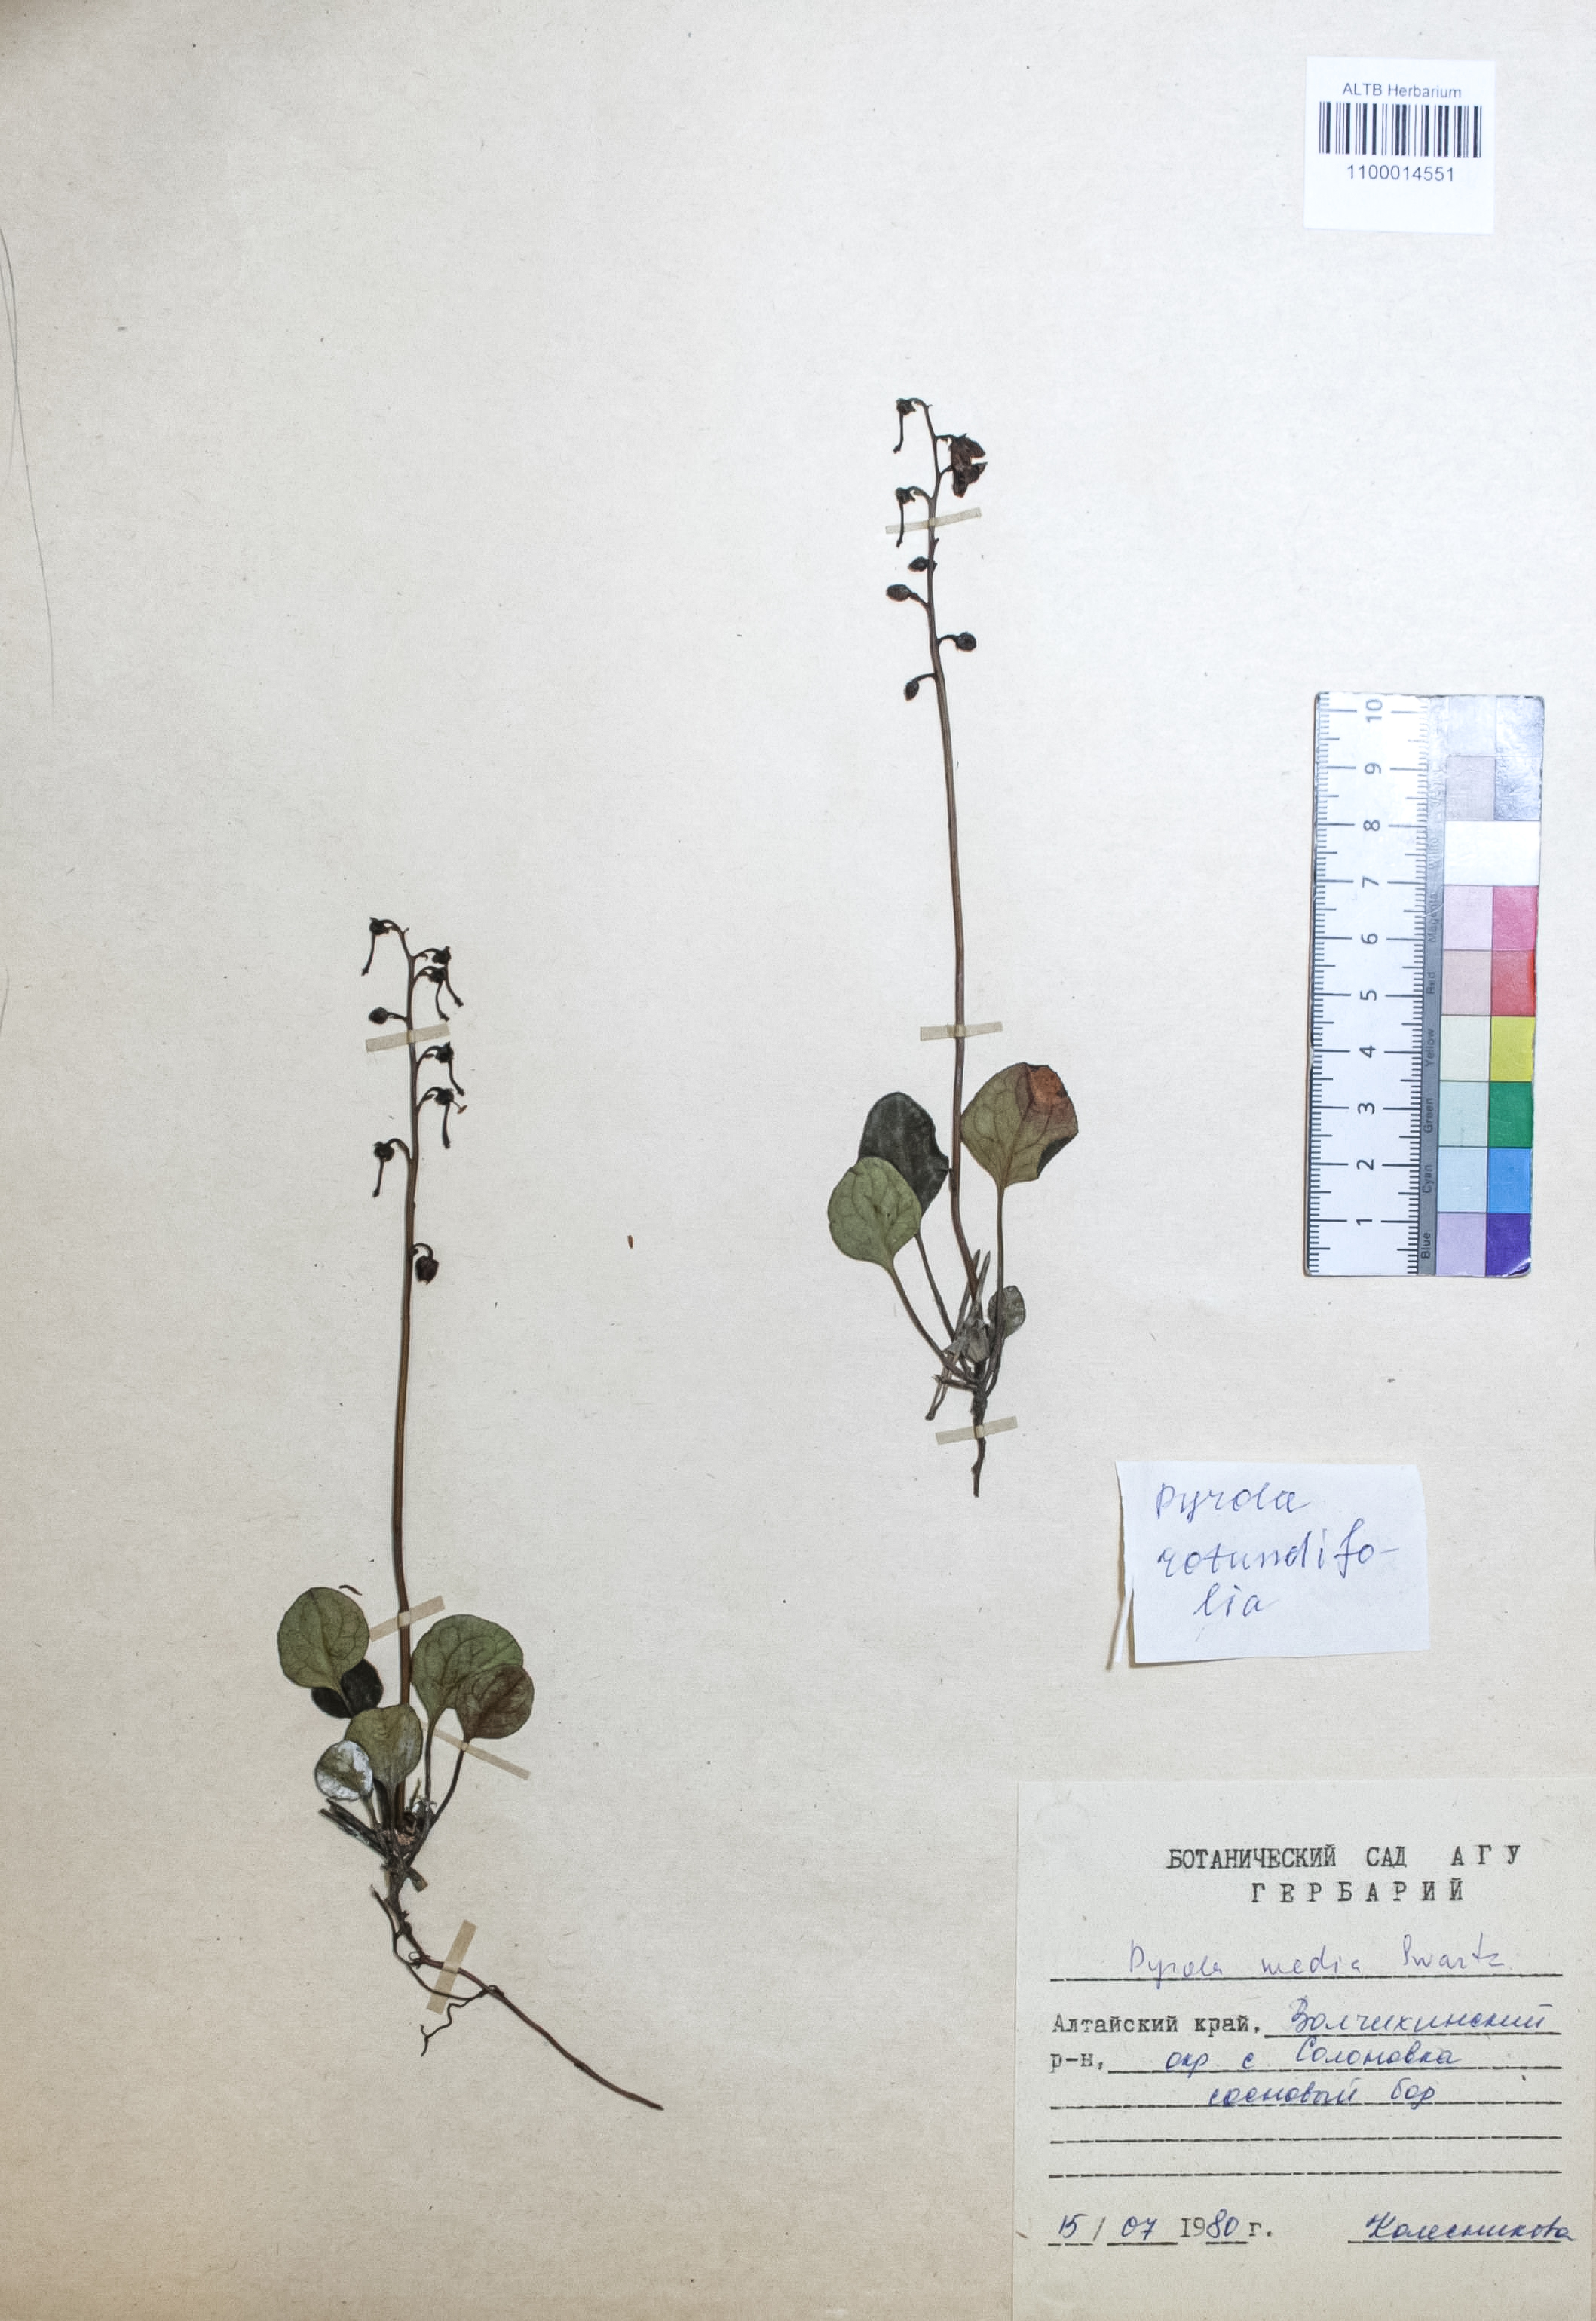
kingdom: Plantae
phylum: Tracheophyta
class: Magnoliopsida
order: Ericales
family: Ericaceae
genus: Pyrola
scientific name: Pyrola media
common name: Intermediate wintergreen
